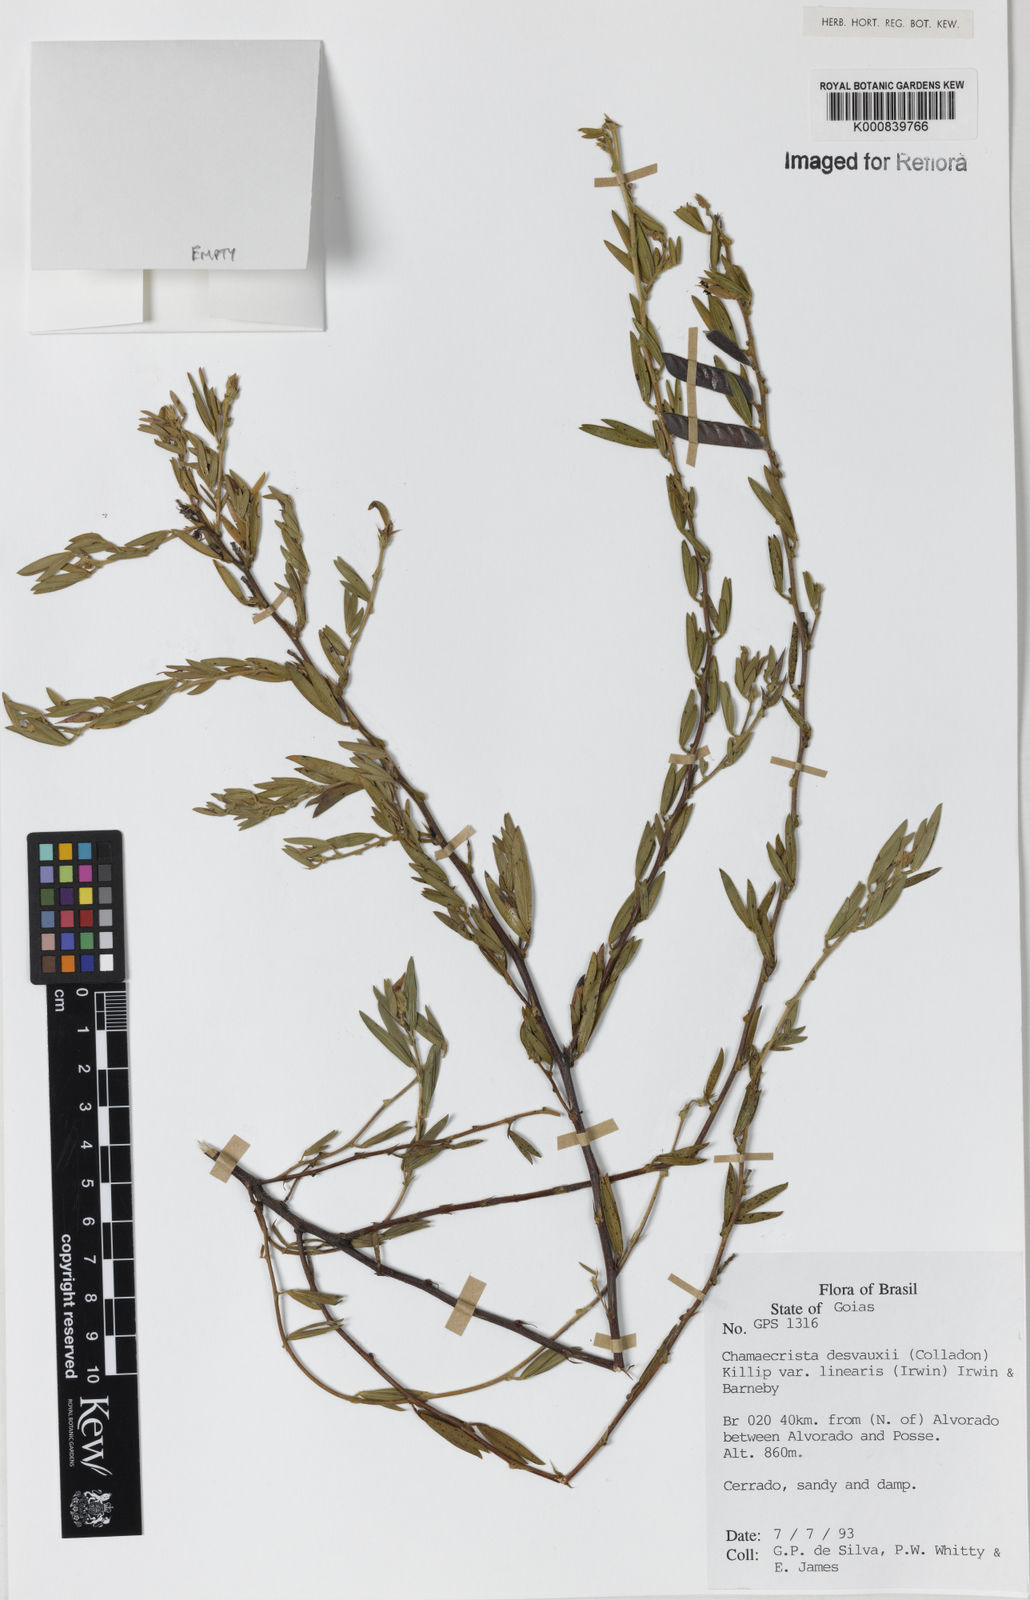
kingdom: Plantae
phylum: Tracheophyta
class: Magnoliopsida
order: Fabales
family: Fabaceae
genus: Chamaecrista
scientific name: Chamaecrista desvauxii
